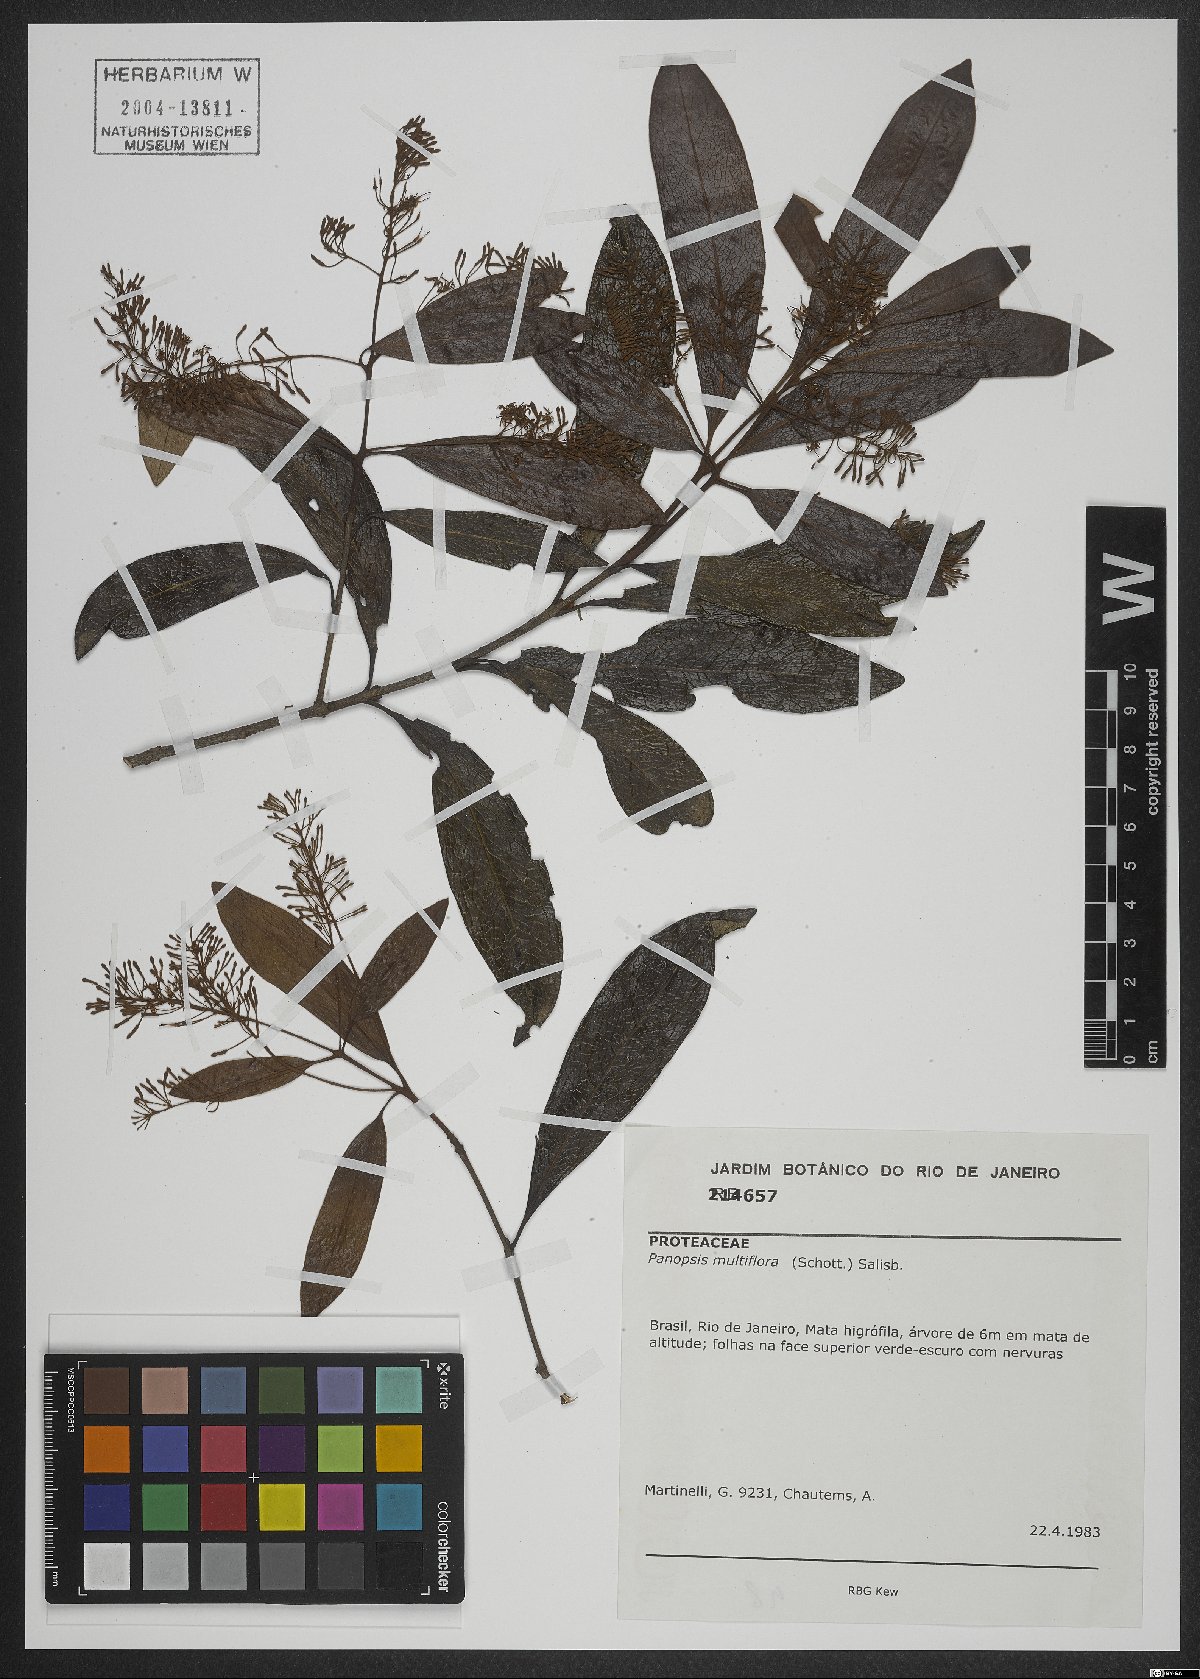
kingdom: Plantae
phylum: Tracheophyta
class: Magnoliopsida
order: Proteales
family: Proteaceae
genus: Panopsis
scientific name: Panopsis multiflora
